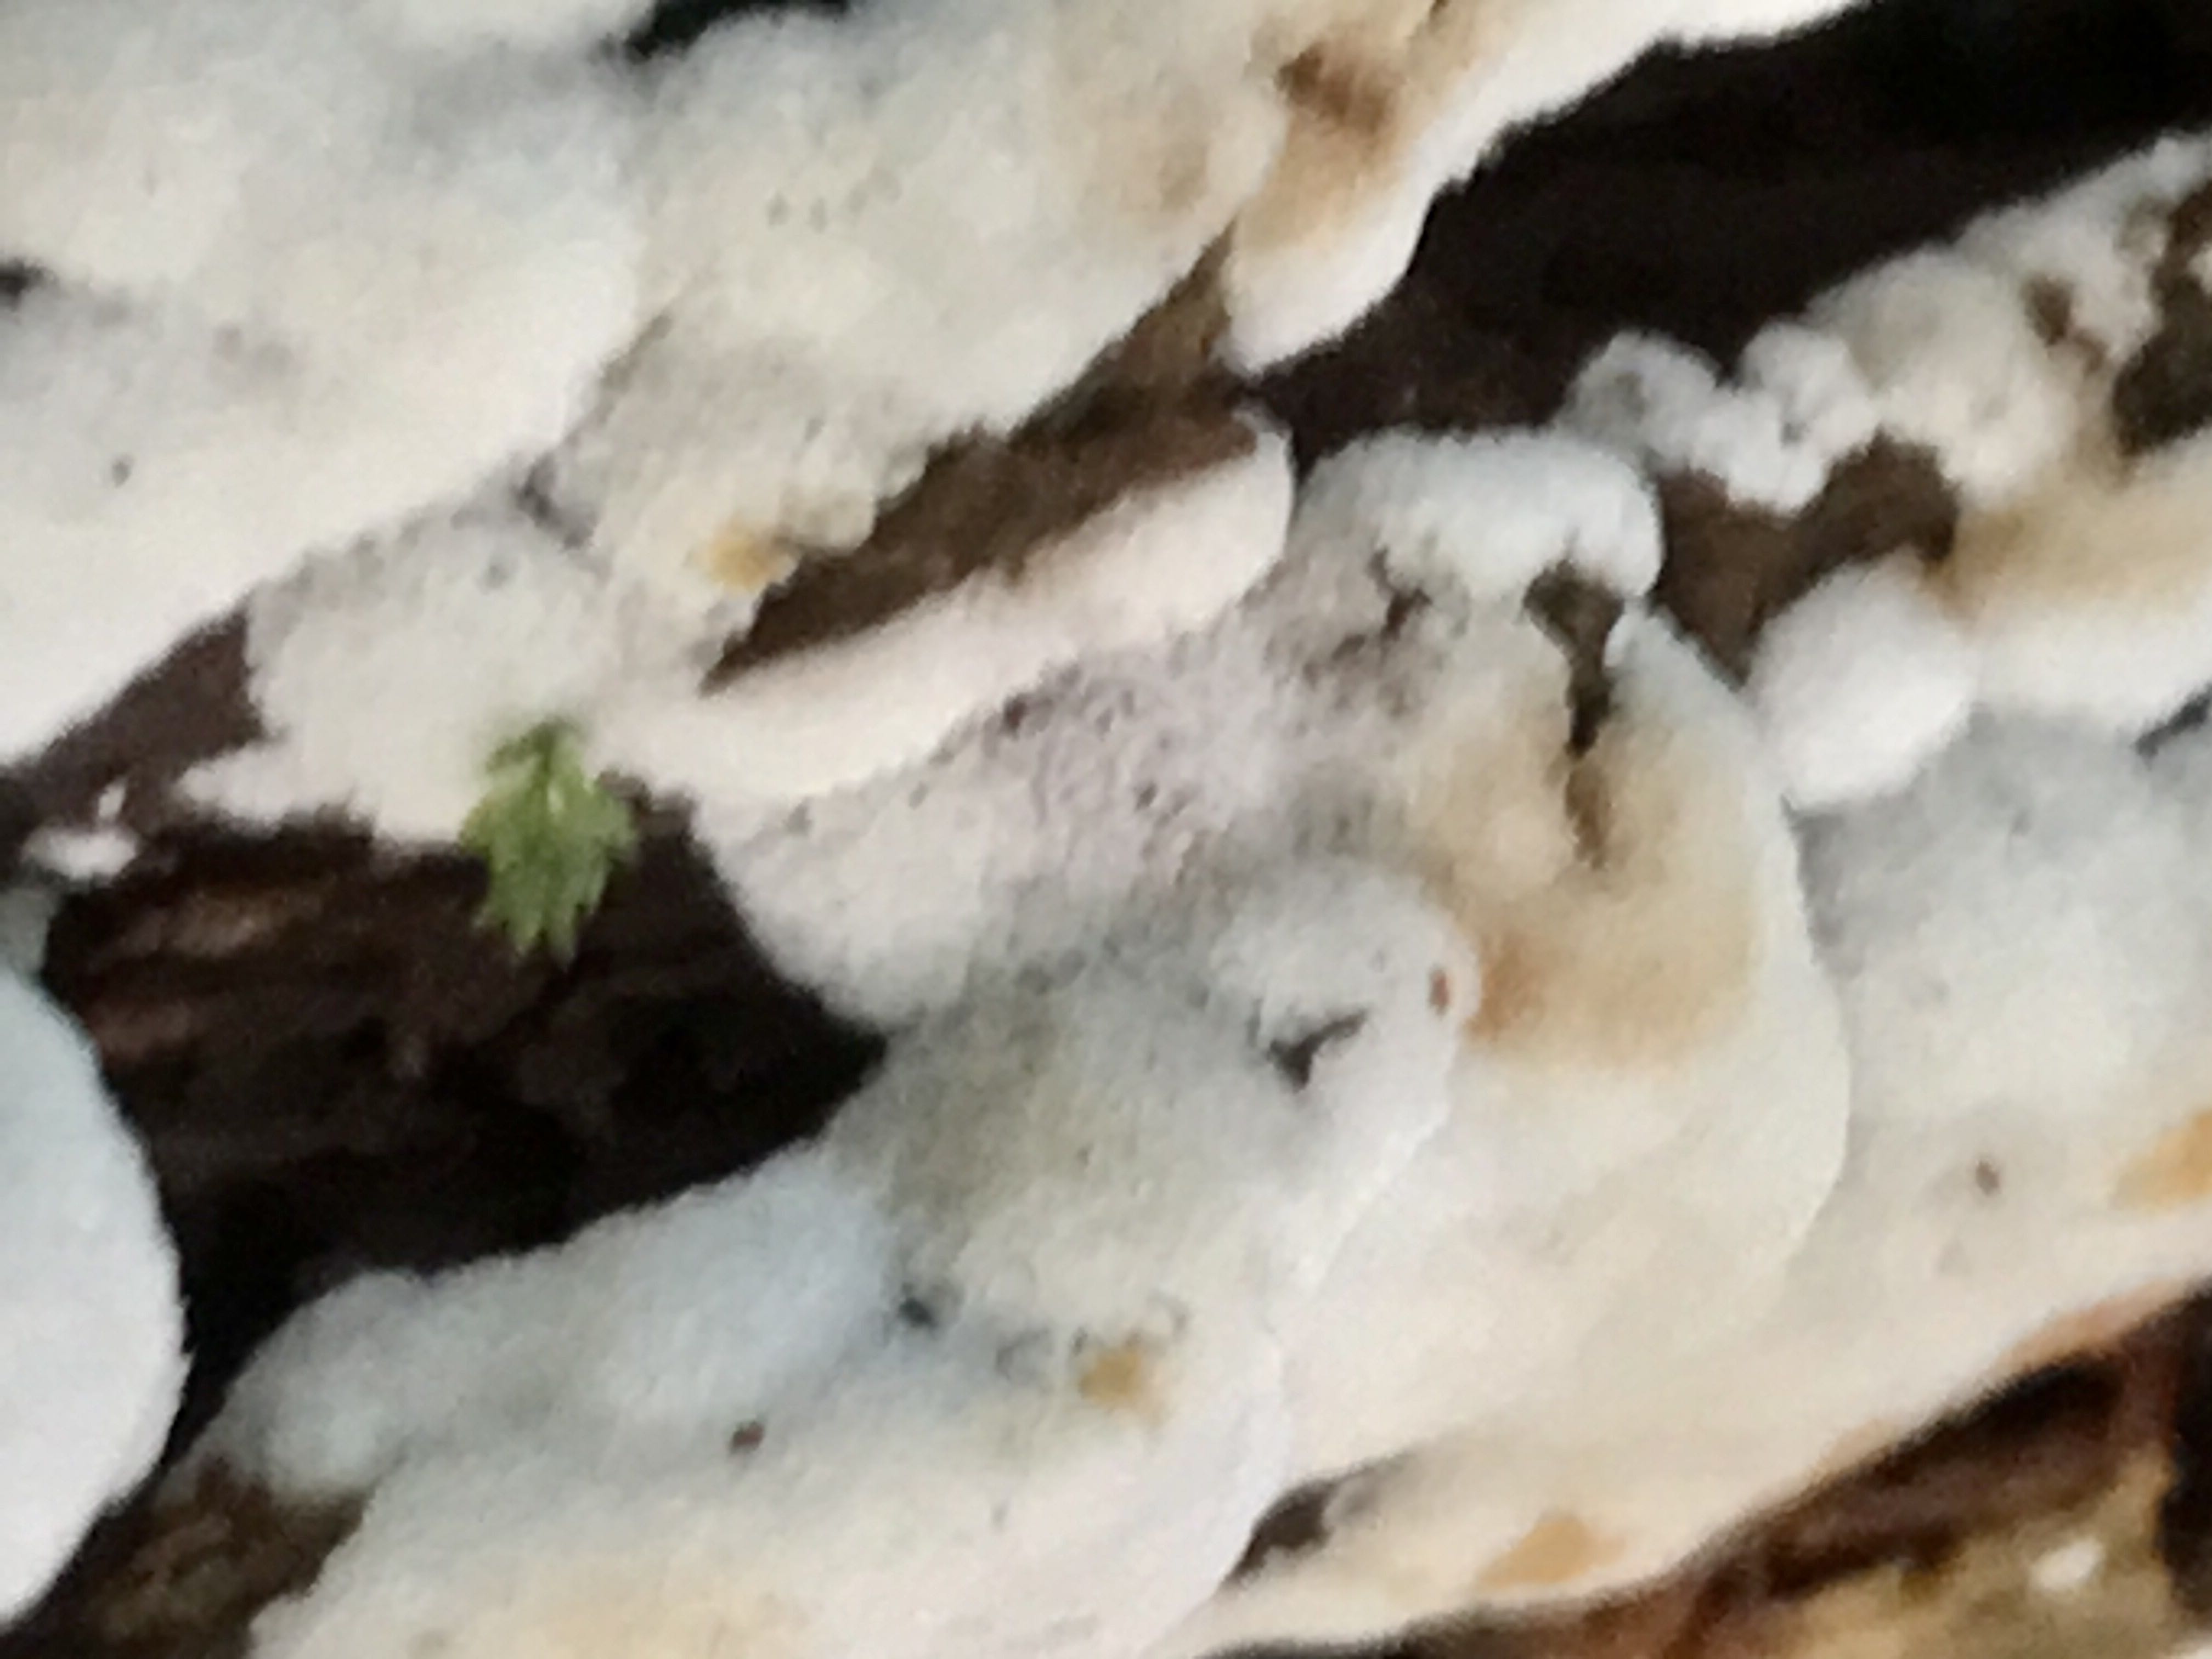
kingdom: Fungi
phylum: Basidiomycota
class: Agaricomycetes
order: Polyporales
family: Meripilaceae
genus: Rigidoporus
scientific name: Rigidoporus sanguinolentus
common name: blod-skorpeporesvamp
